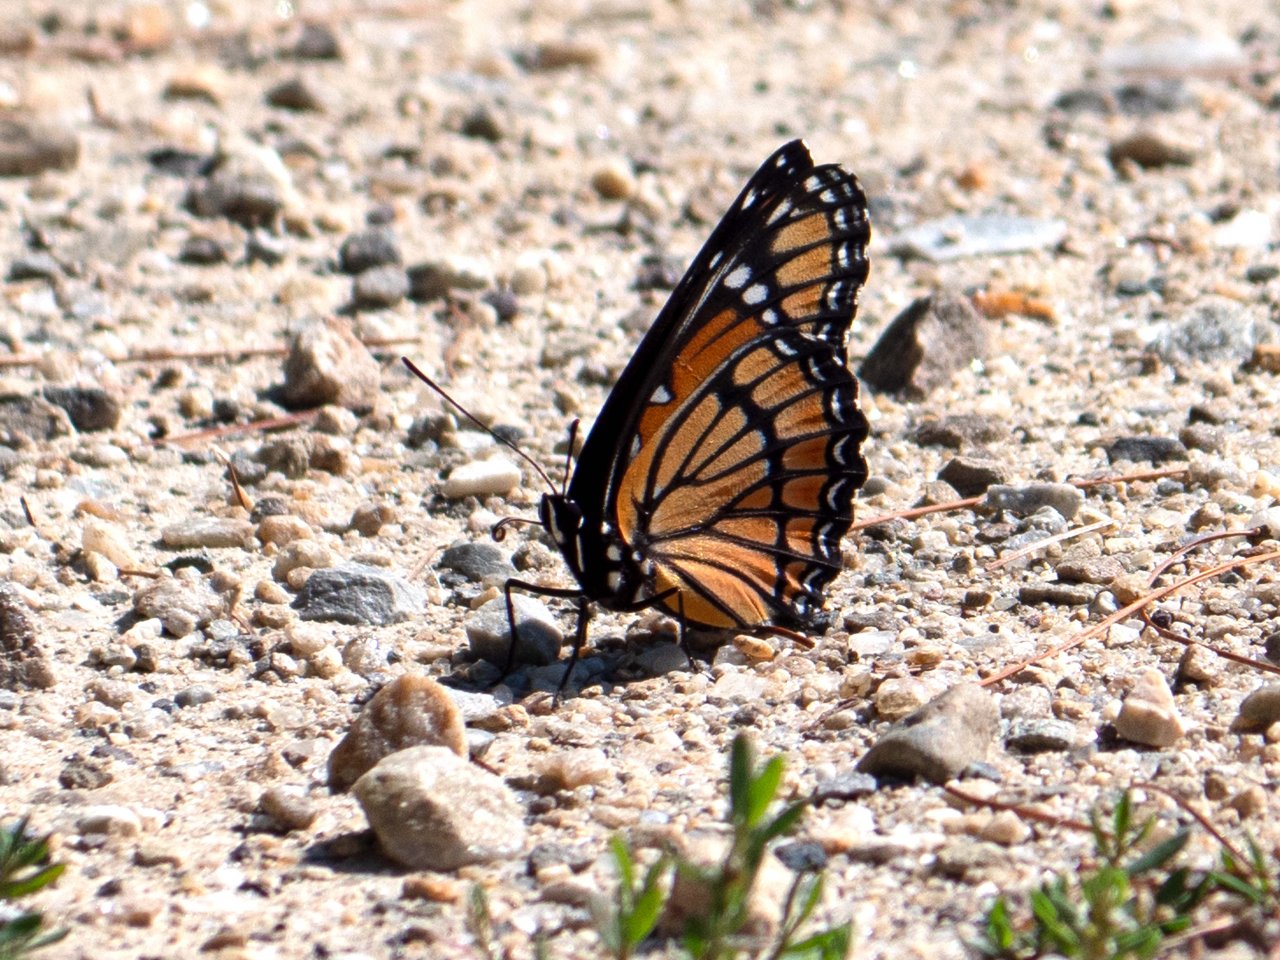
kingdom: Animalia
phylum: Arthropoda
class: Insecta
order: Lepidoptera
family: Nymphalidae
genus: Limenitis
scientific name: Limenitis archippus
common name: Viceroy
